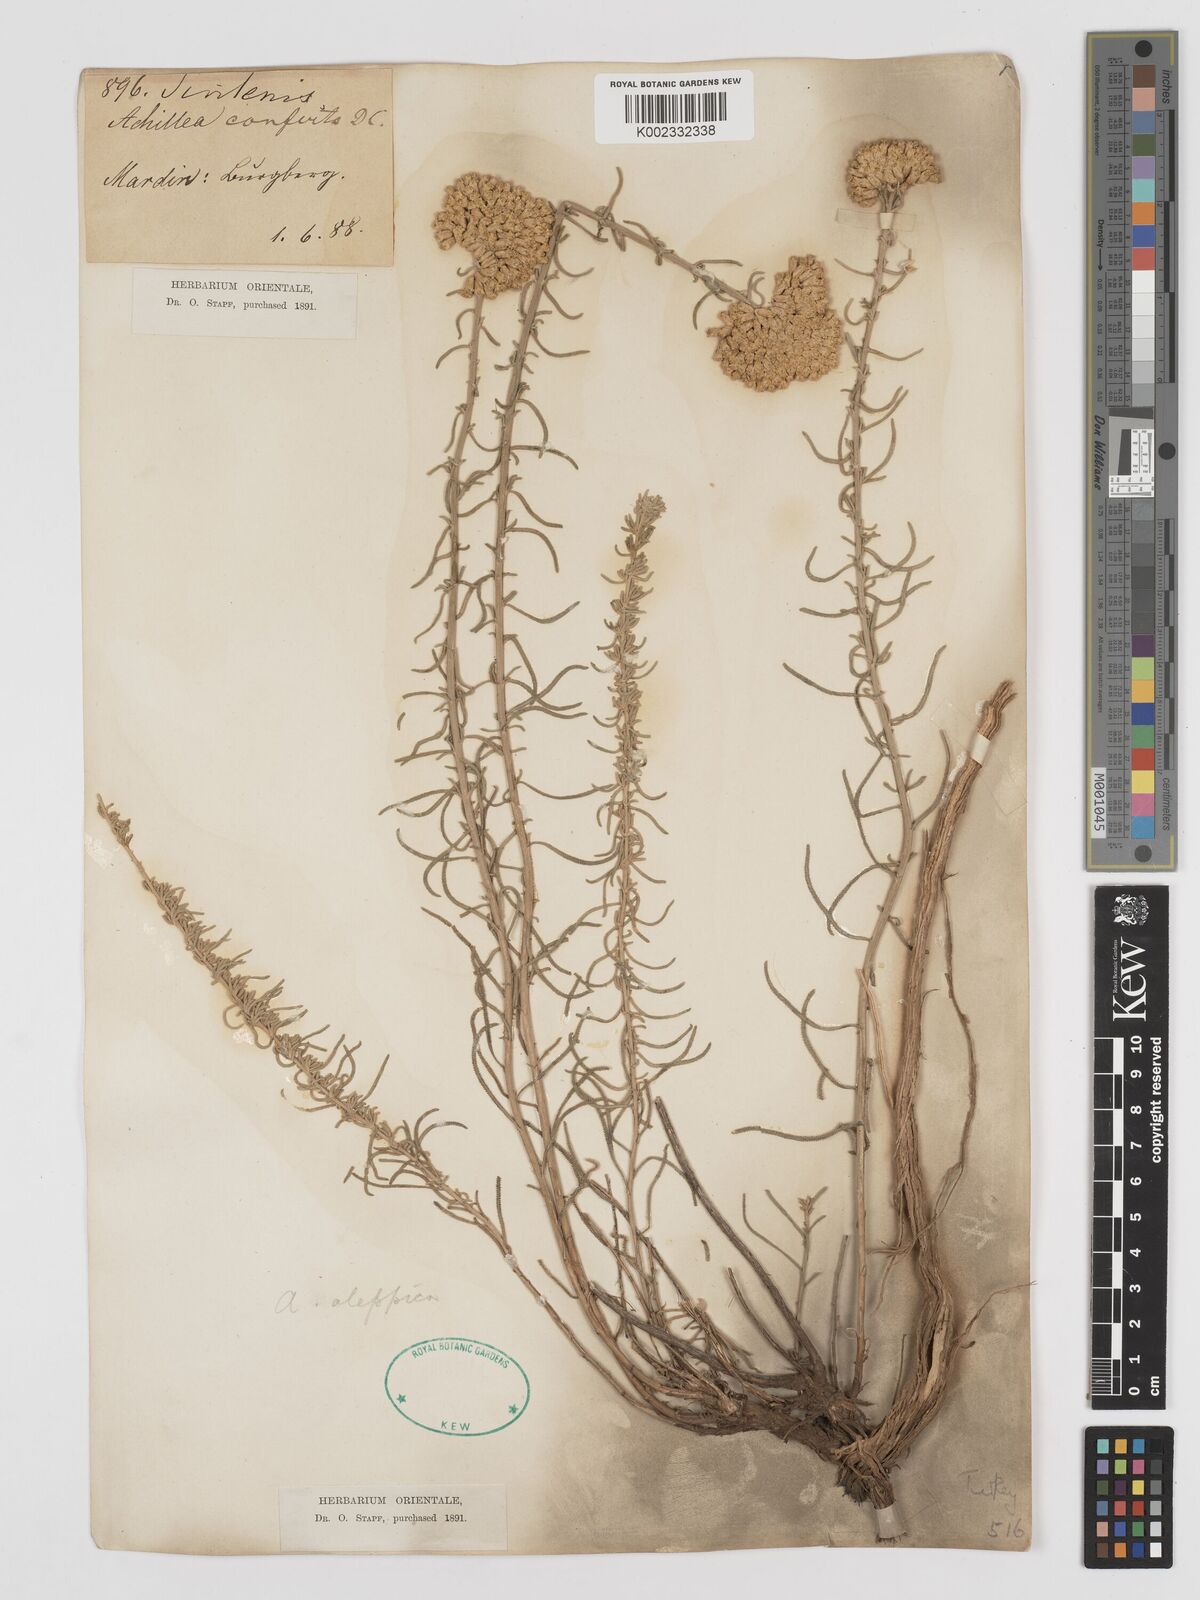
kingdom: Plantae
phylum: Tracheophyta
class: Magnoliopsida
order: Asterales
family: Asteraceae
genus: Achillea
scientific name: Achillea aleppica
